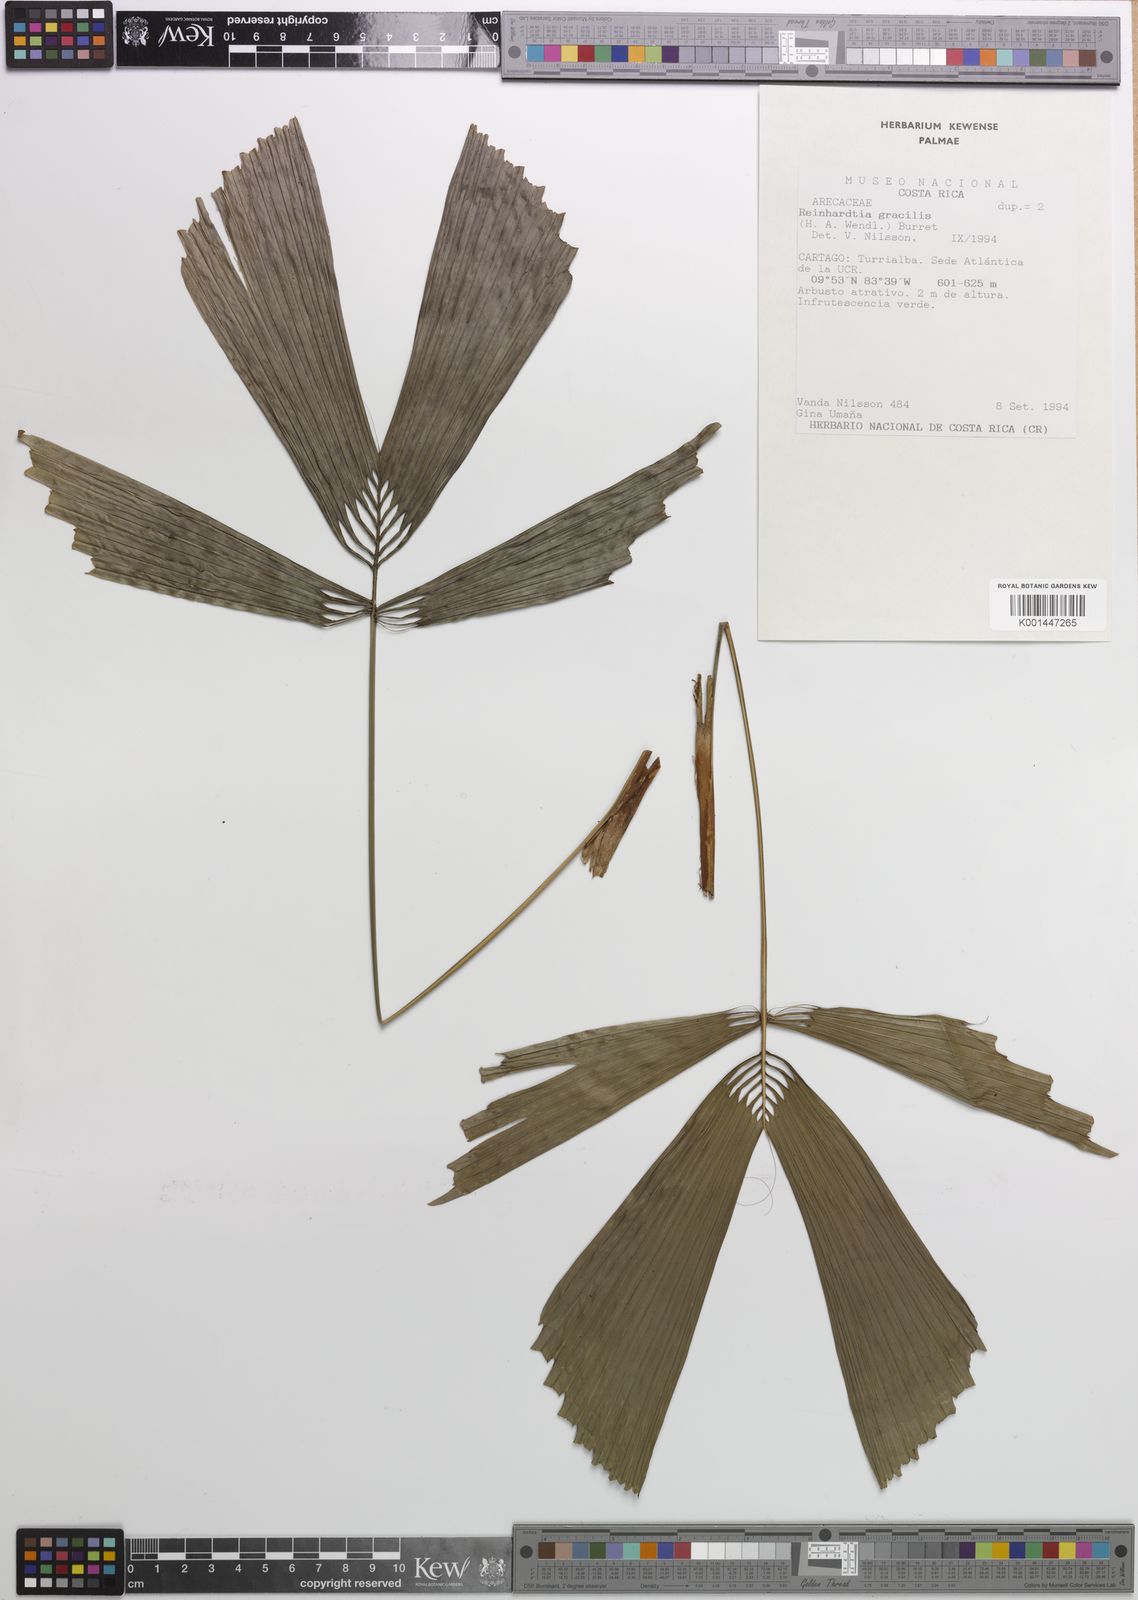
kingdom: Plantae
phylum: Tracheophyta
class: Liliopsida
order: Arecales
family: Arecaceae
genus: Reinhardtia
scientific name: Reinhardtia gracilis
